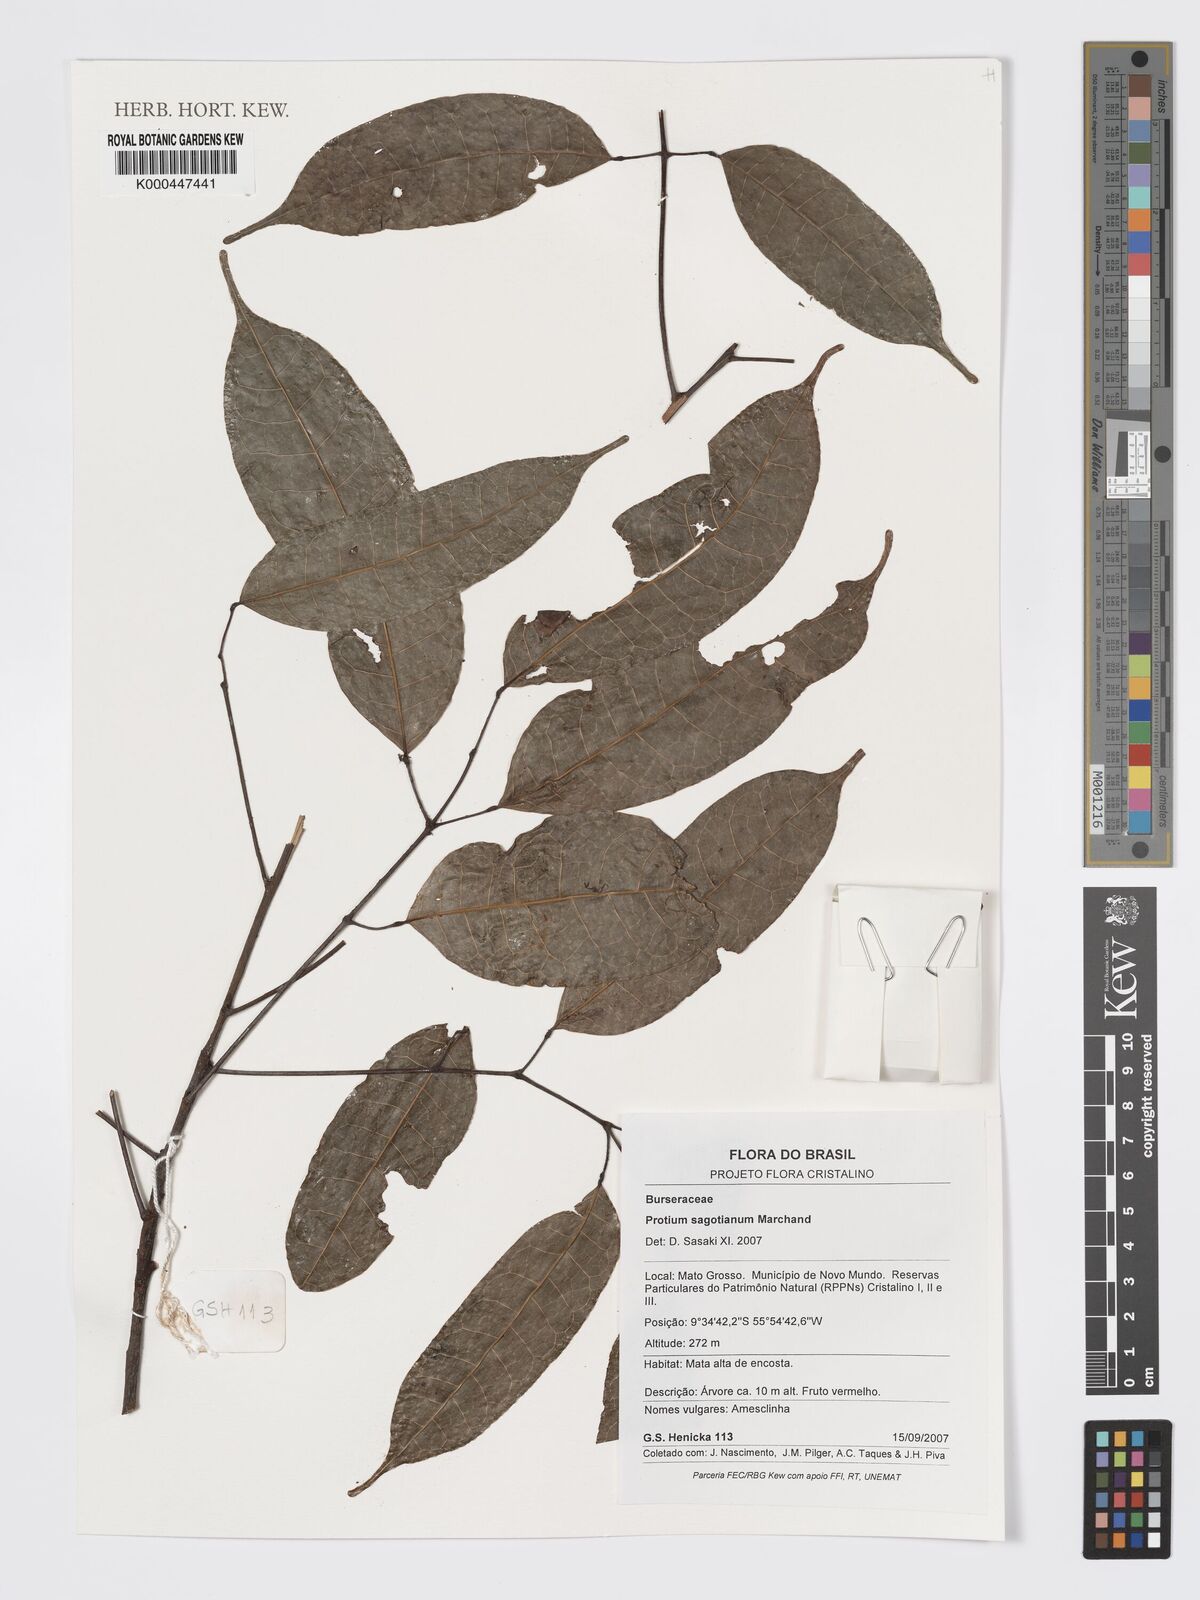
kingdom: Plantae
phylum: Tracheophyta
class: Magnoliopsida
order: Sapindales
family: Burseraceae
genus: Protium
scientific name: Protium sagotianum
